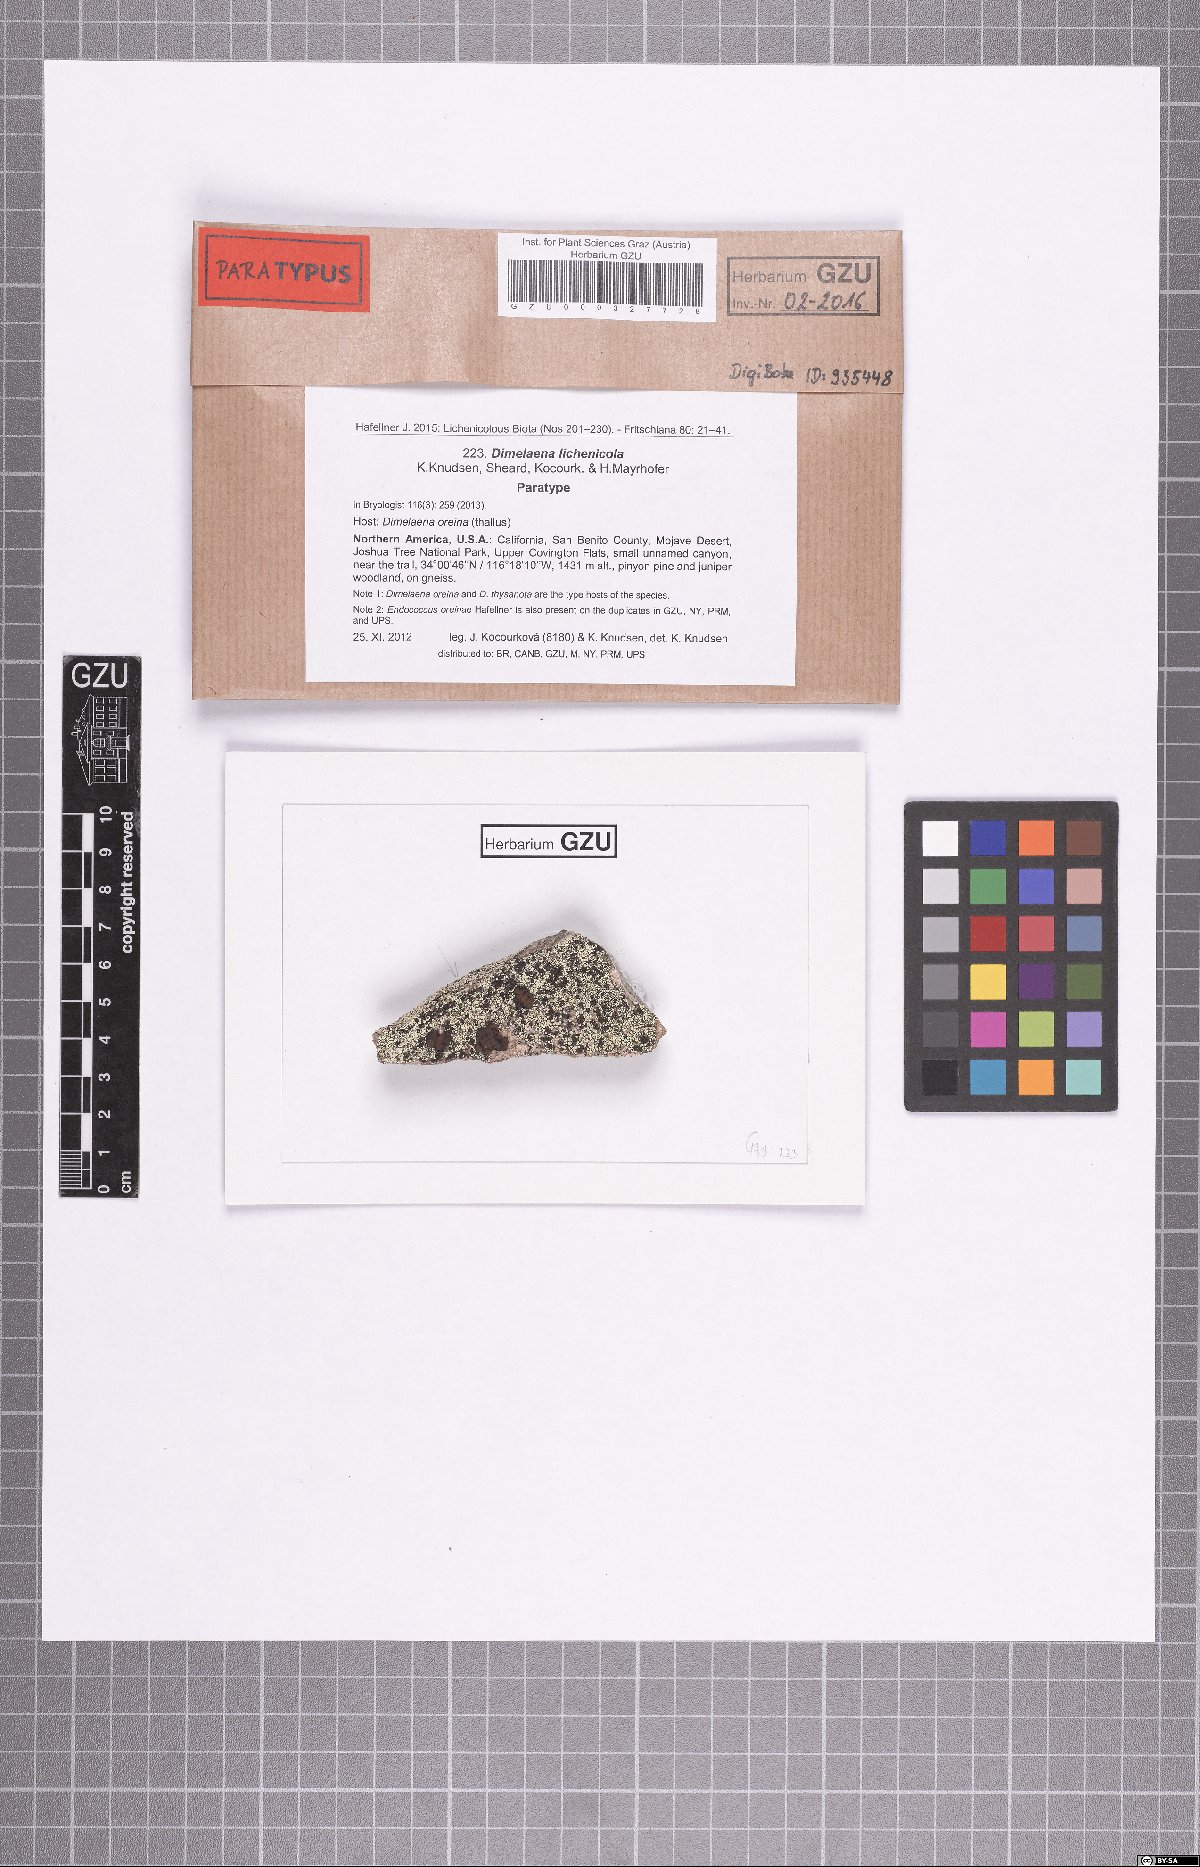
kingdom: Fungi
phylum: Ascomycota
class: Lecanoromycetes
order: Caliciales
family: Caliciaceae
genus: Dimelaena
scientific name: Dimelaena lichenicola
